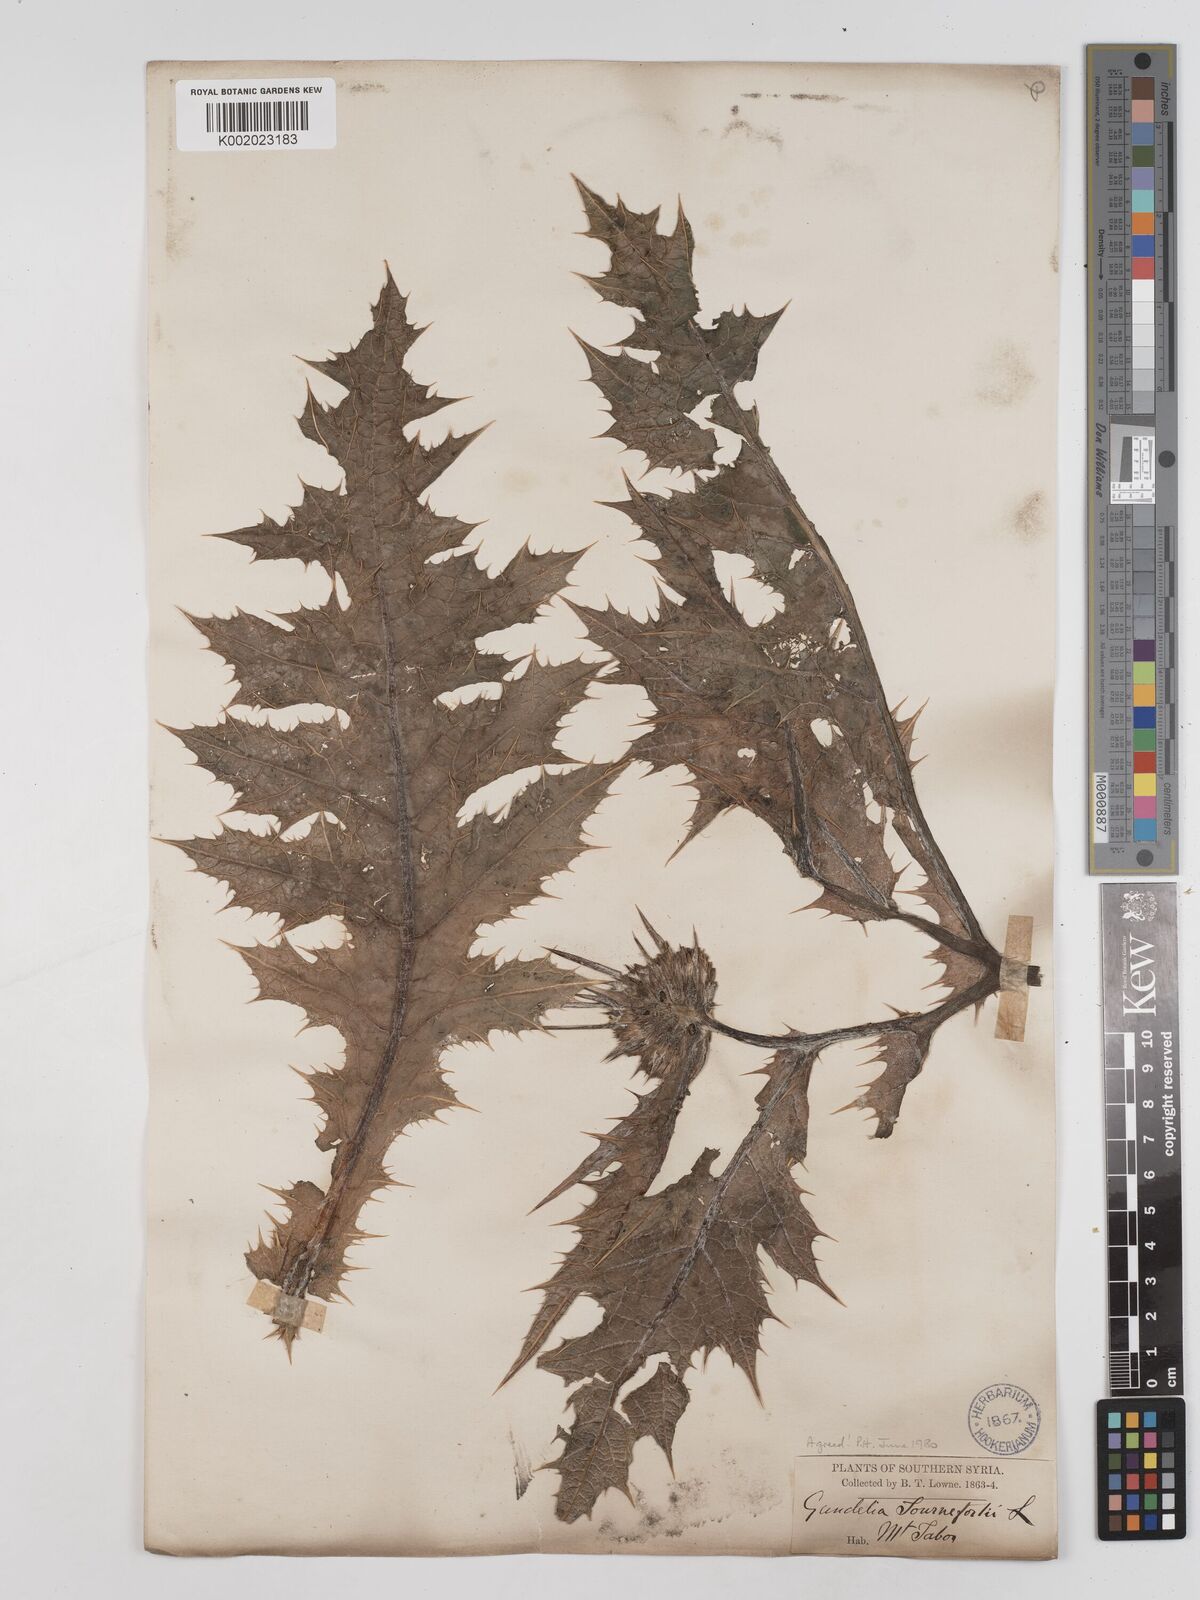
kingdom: Plantae
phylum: Tracheophyta
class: Magnoliopsida
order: Asterales
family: Asteraceae
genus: Gundelia
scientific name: Gundelia tournefortii
